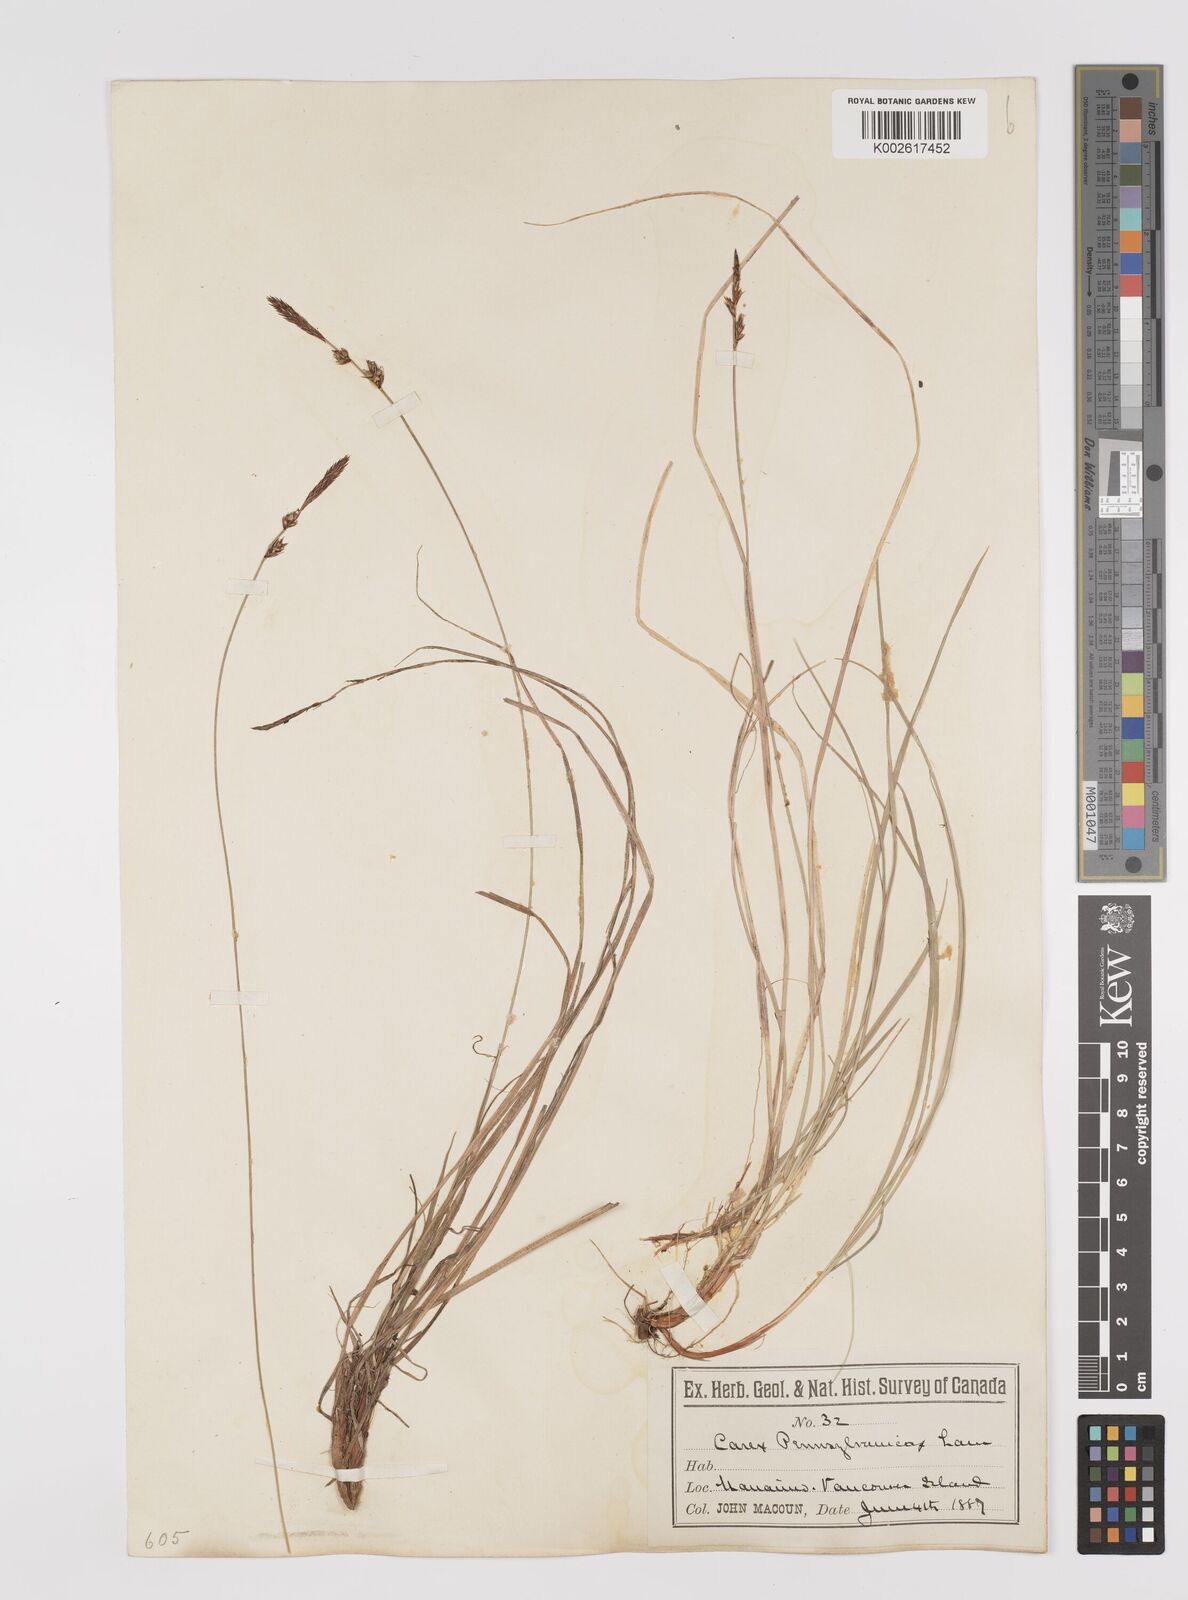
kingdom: Plantae
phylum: Tracheophyta
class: Liliopsida
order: Poales
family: Cyperaceae
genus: Carex
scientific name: Carex pensylvanica
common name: Common oak sedge
